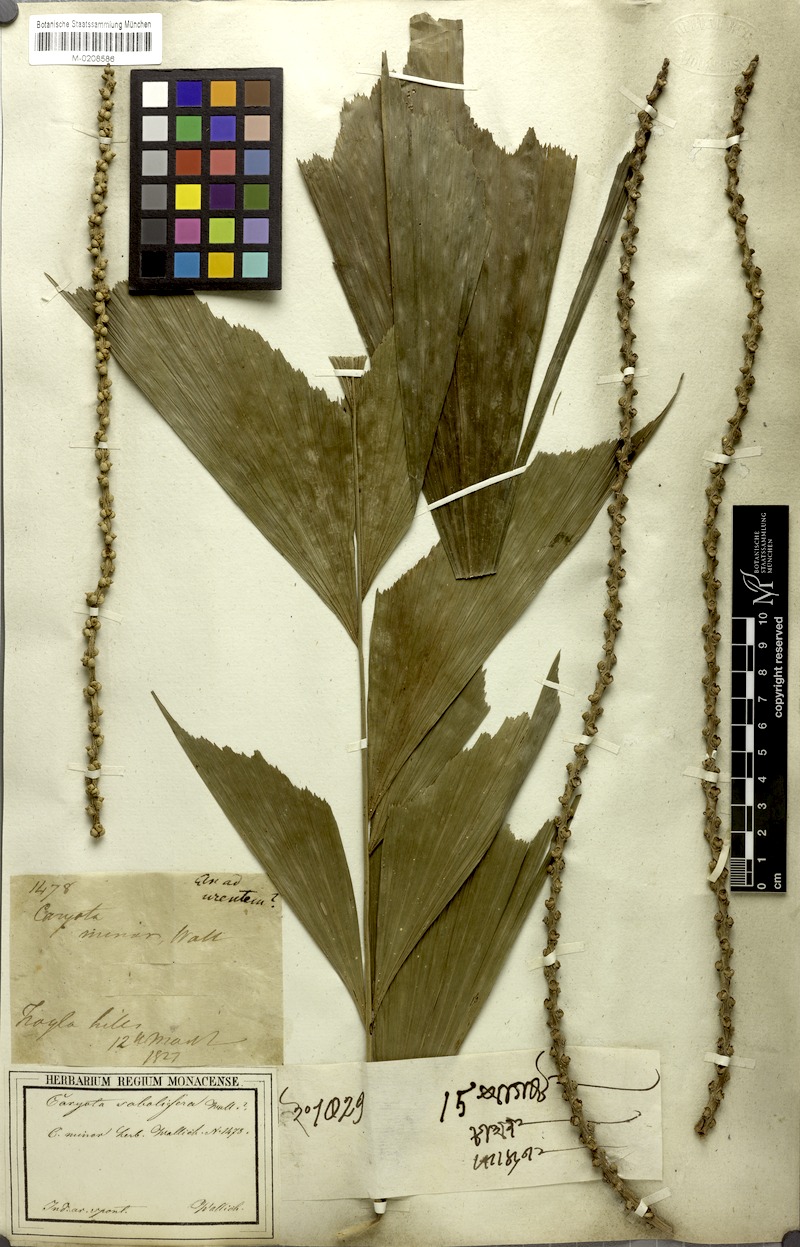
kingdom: Plantae
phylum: Tracheophyta
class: Liliopsida
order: Arecales
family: Arecaceae
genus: Caryota
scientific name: Caryota mitis
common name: Burmese fishtail palm
